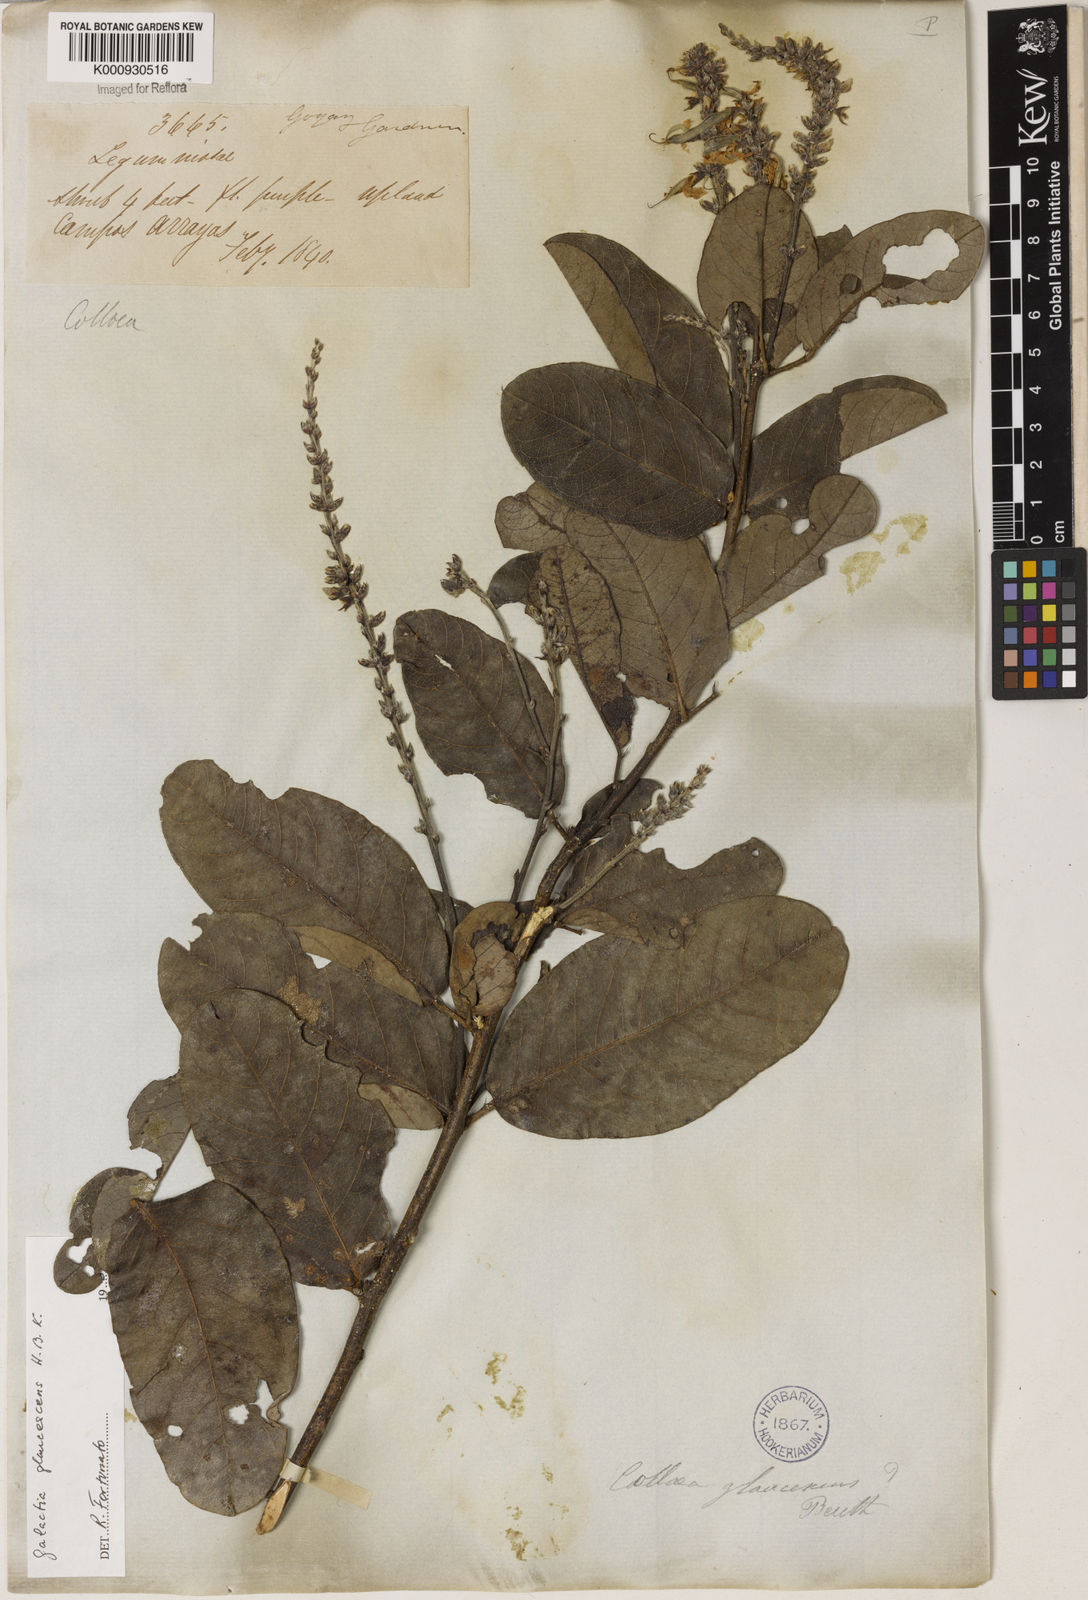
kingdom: Plantae
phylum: Tracheophyta
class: Magnoliopsida
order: Fabales
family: Fabaceae
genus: Galactia
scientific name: Galactia glaucescens
